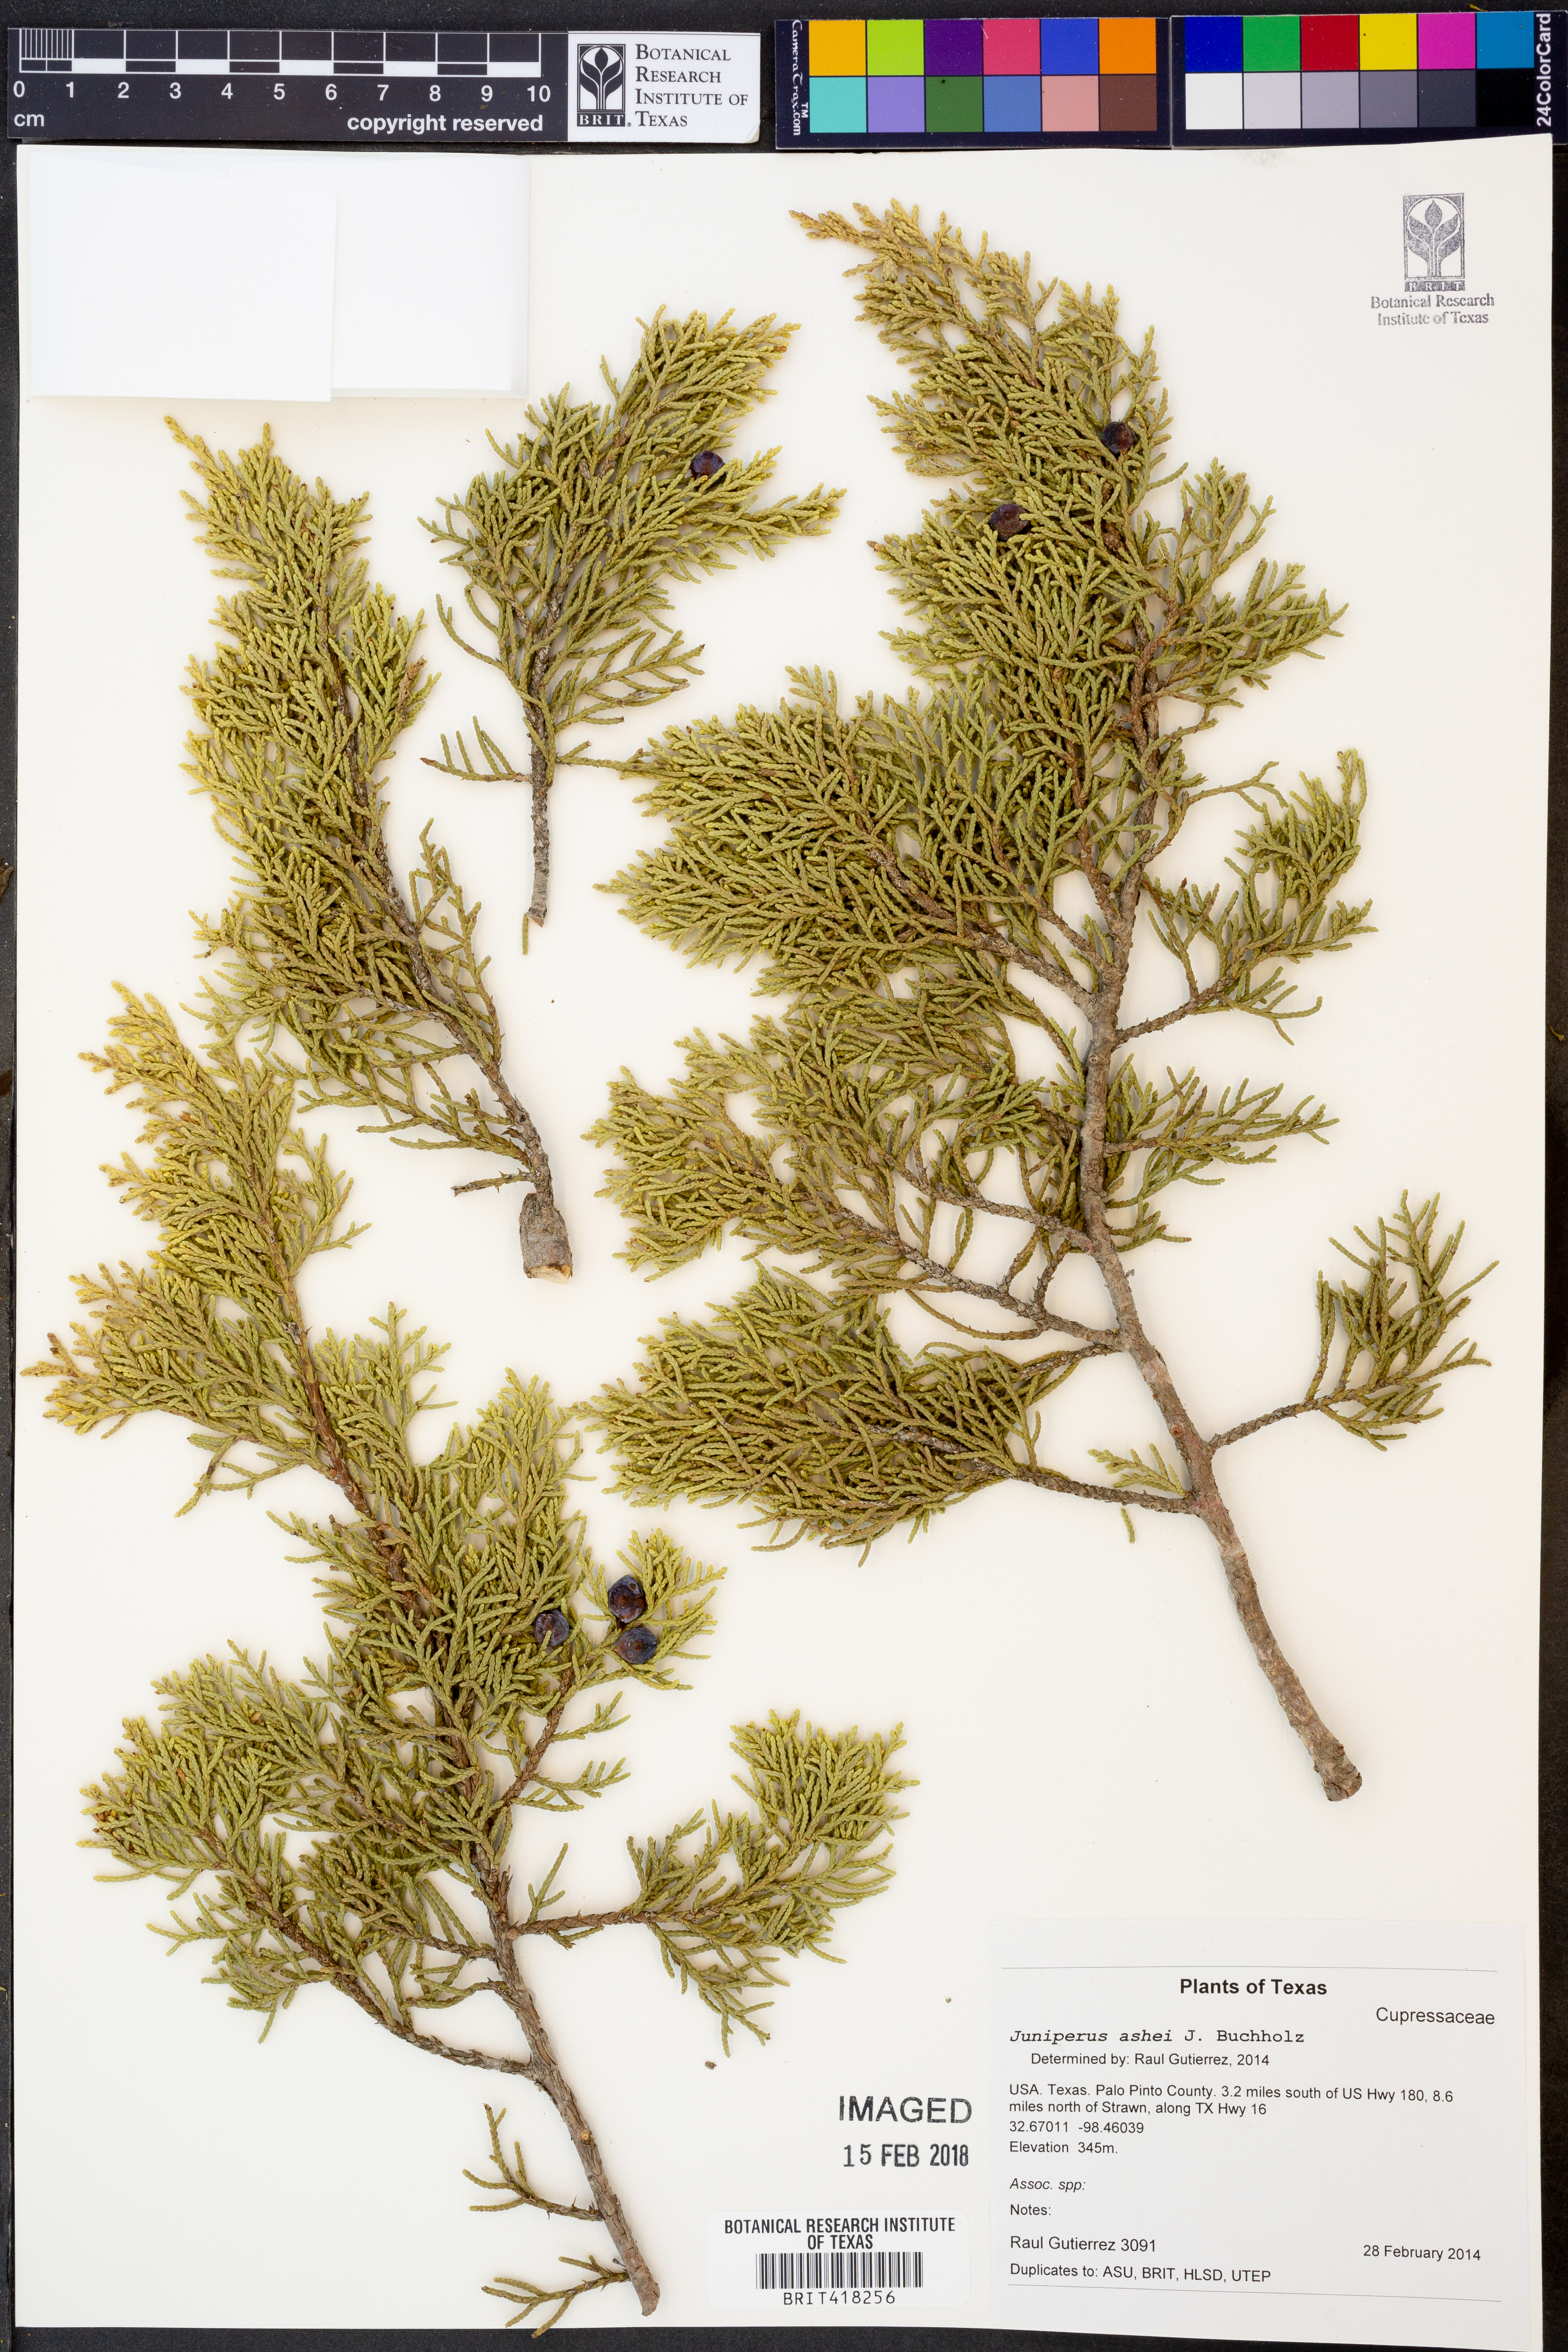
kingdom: Plantae
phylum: Tracheophyta
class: Pinopsida
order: Pinales
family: Cupressaceae
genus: Juniperus
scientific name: Juniperus ashei
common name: Mexican juniper
